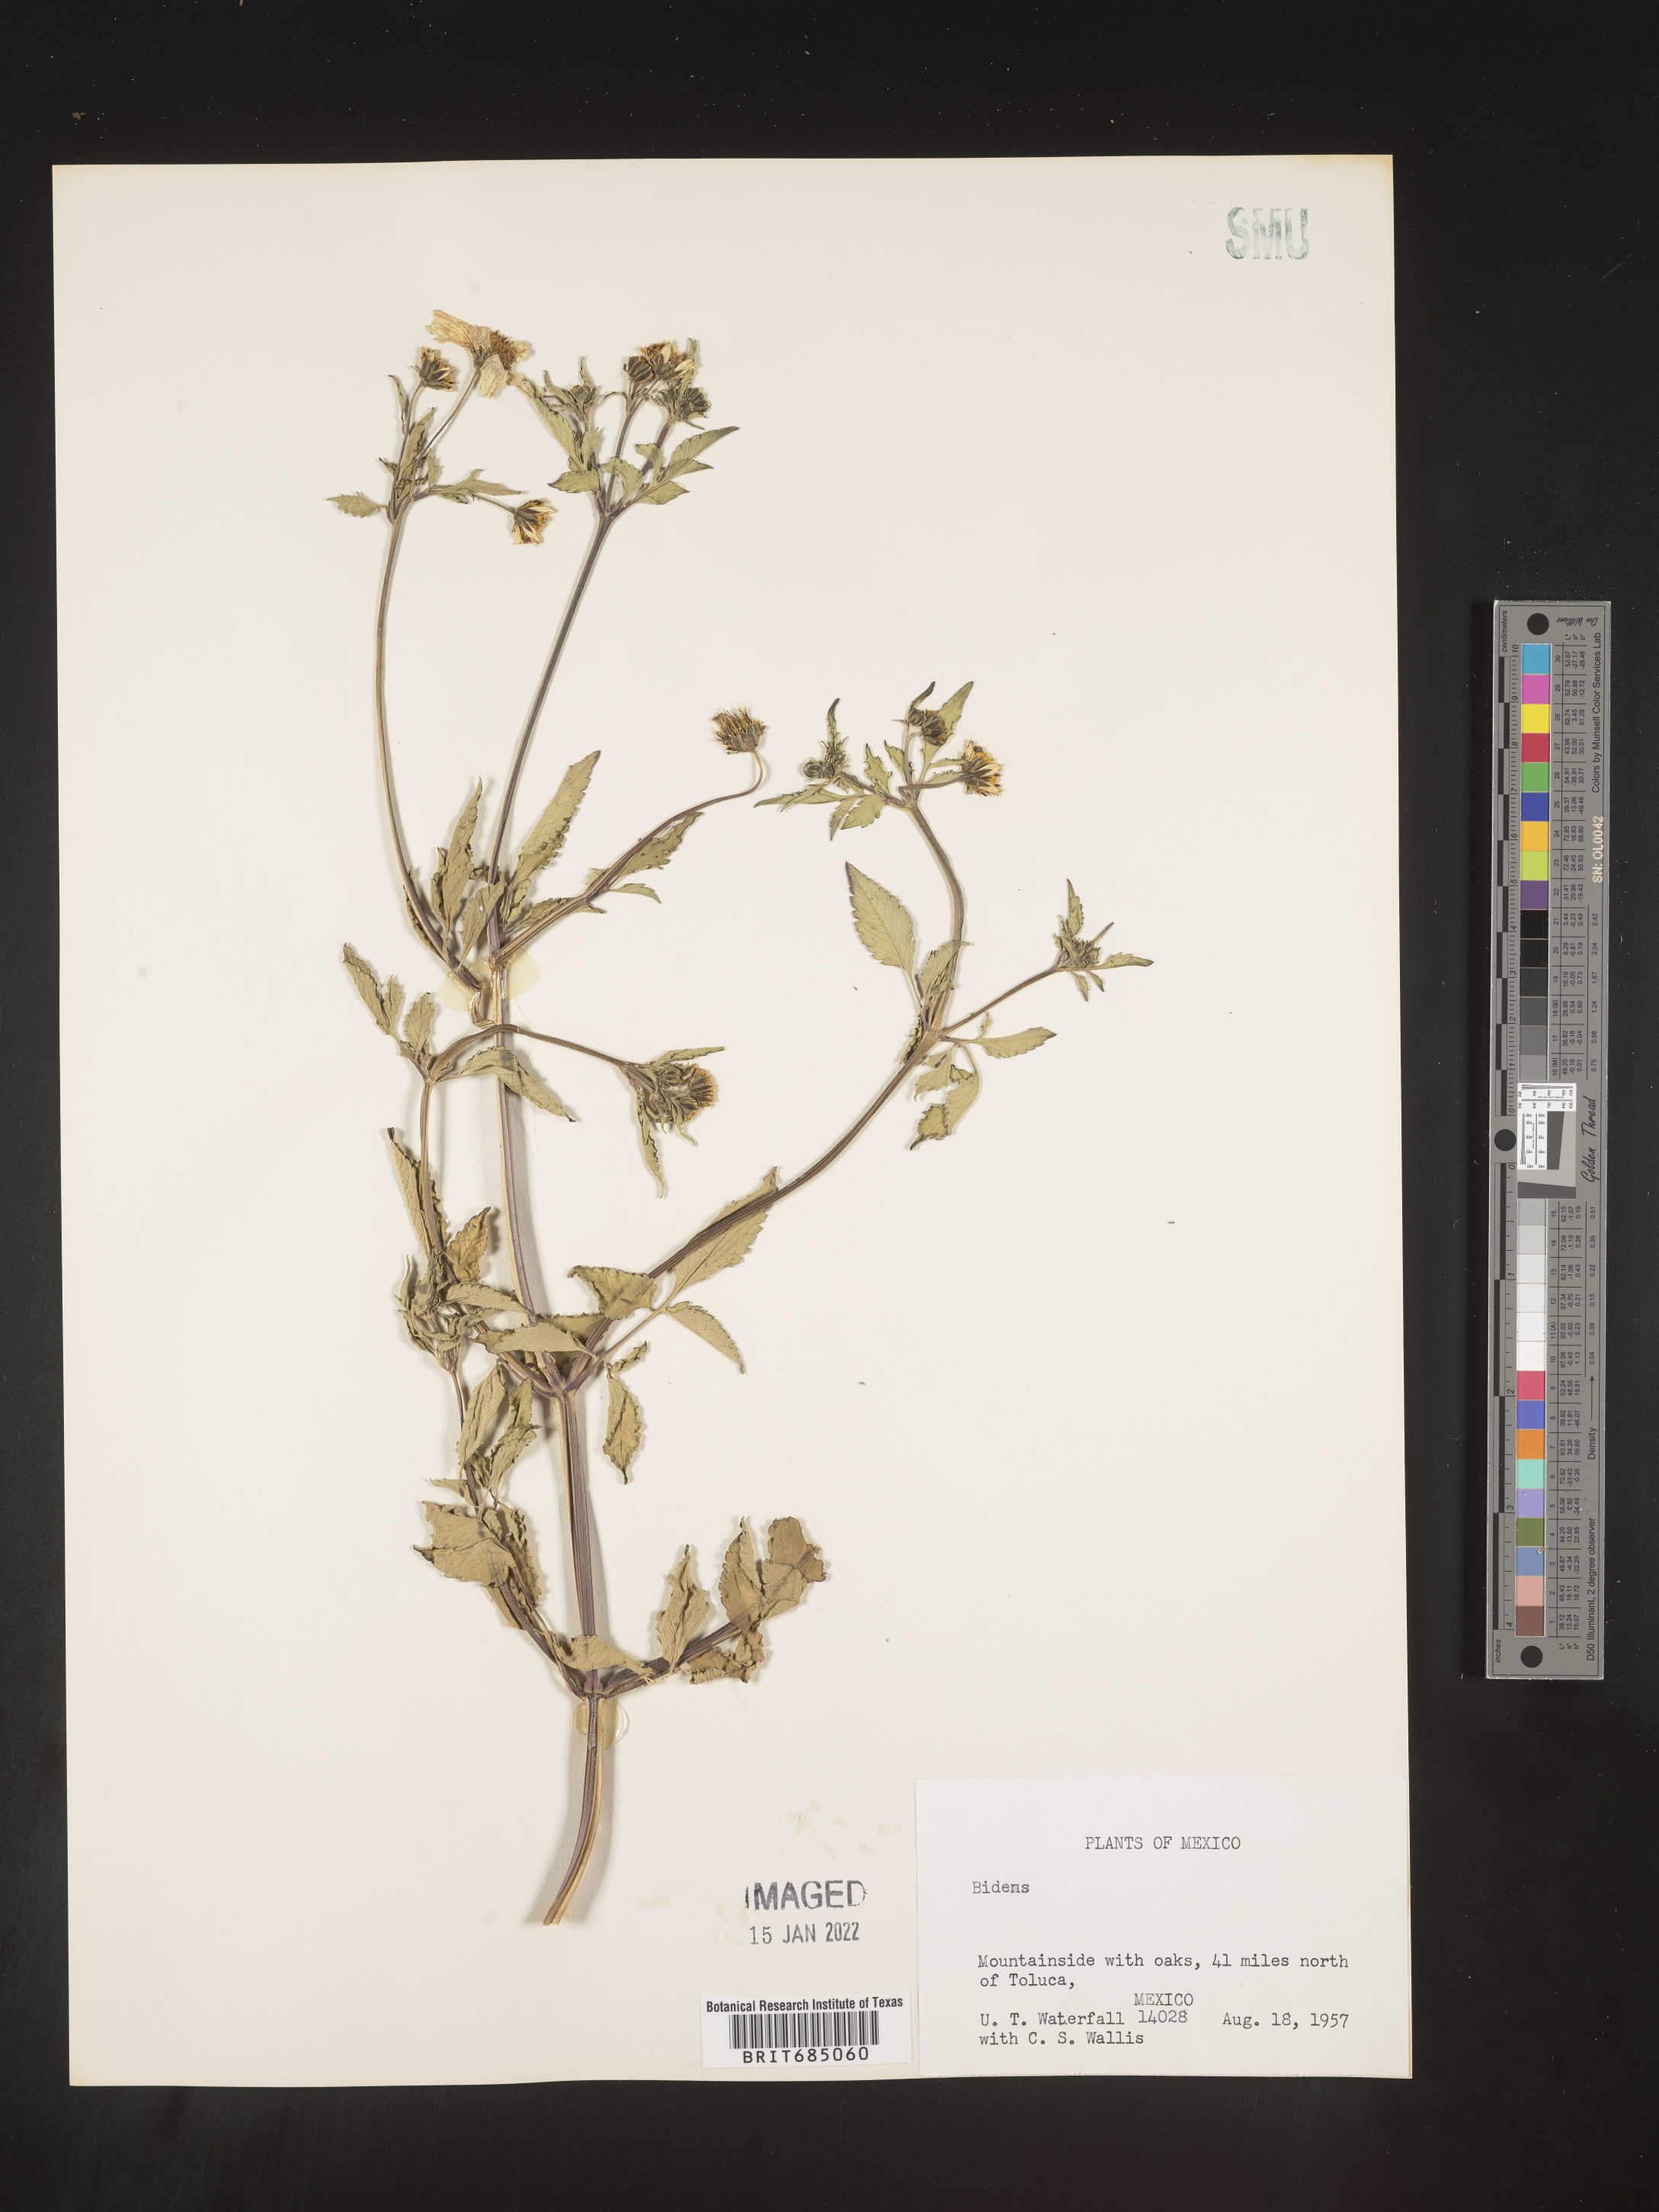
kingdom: Plantae
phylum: Tracheophyta
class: Magnoliopsida
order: Asterales
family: Asteraceae
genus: Bidens
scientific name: Bidens
